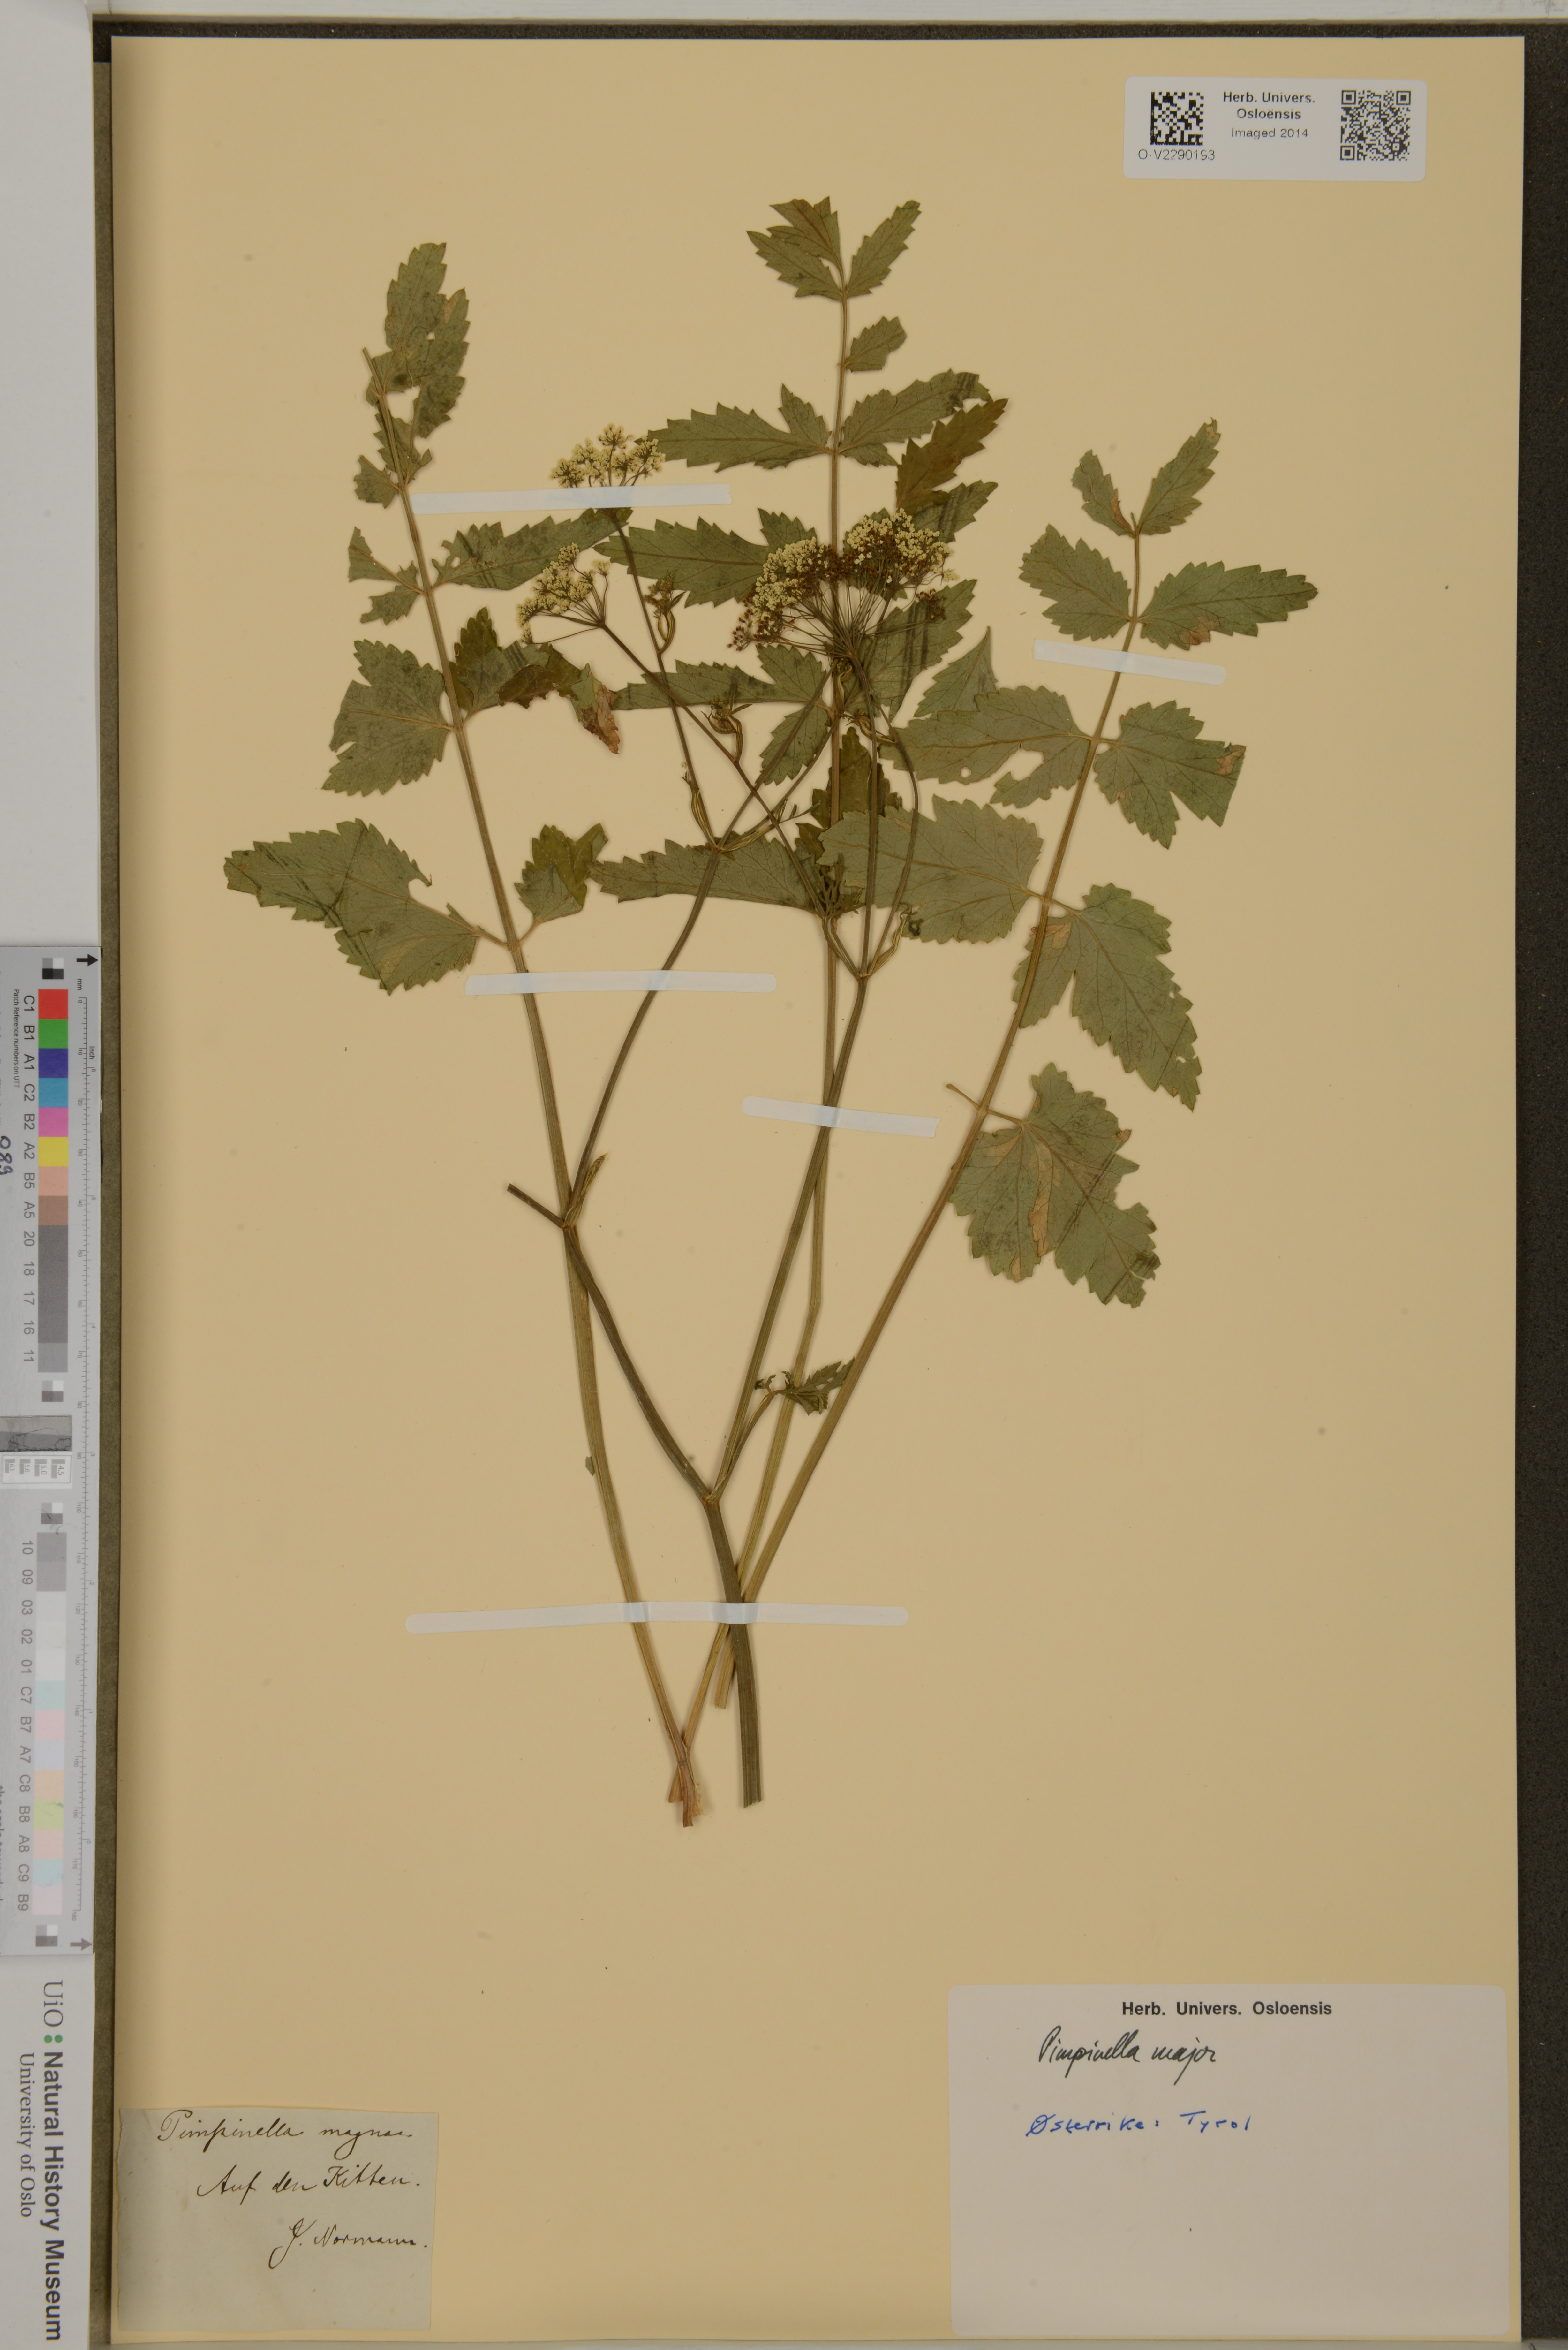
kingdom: Plantae
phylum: Tracheophyta
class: Magnoliopsida
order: Apiales
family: Apiaceae
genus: Pimpinella
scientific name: Pimpinella major
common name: Greater burnet-saxifrage
